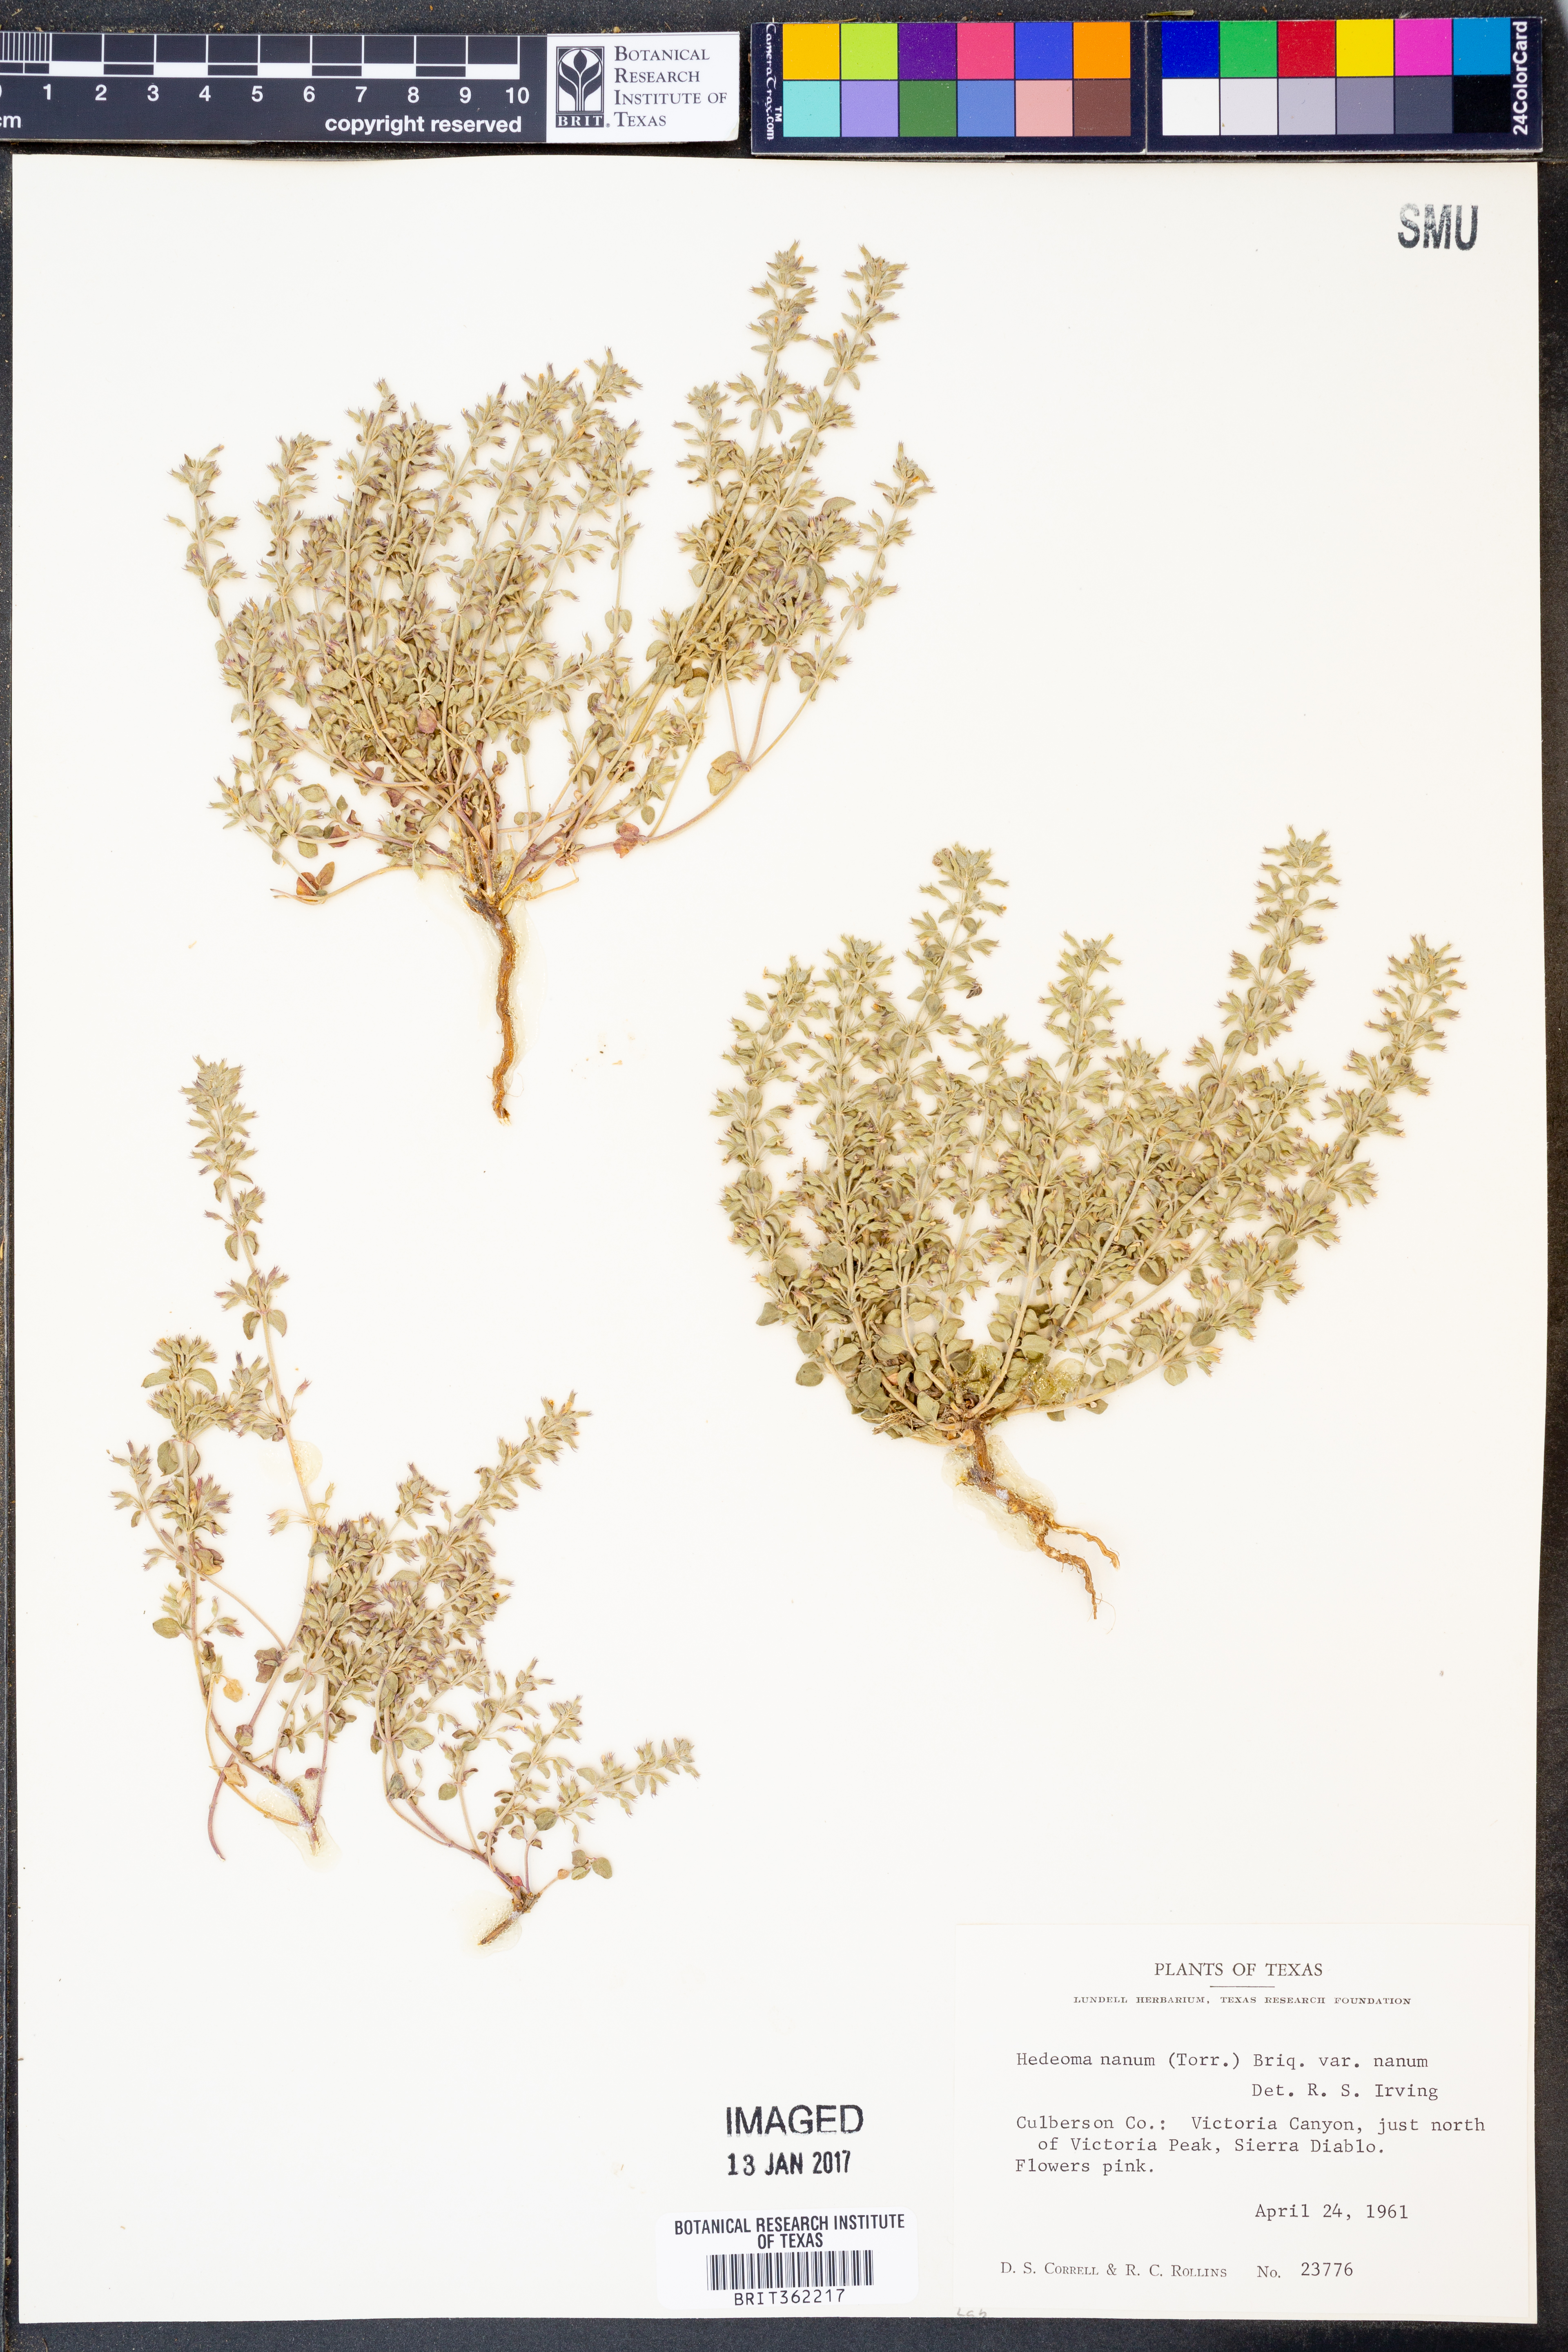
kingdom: Plantae
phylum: Tracheophyta
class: Magnoliopsida
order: Lamiales
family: Lamiaceae
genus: Hedeoma
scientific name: Hedeoma nana
